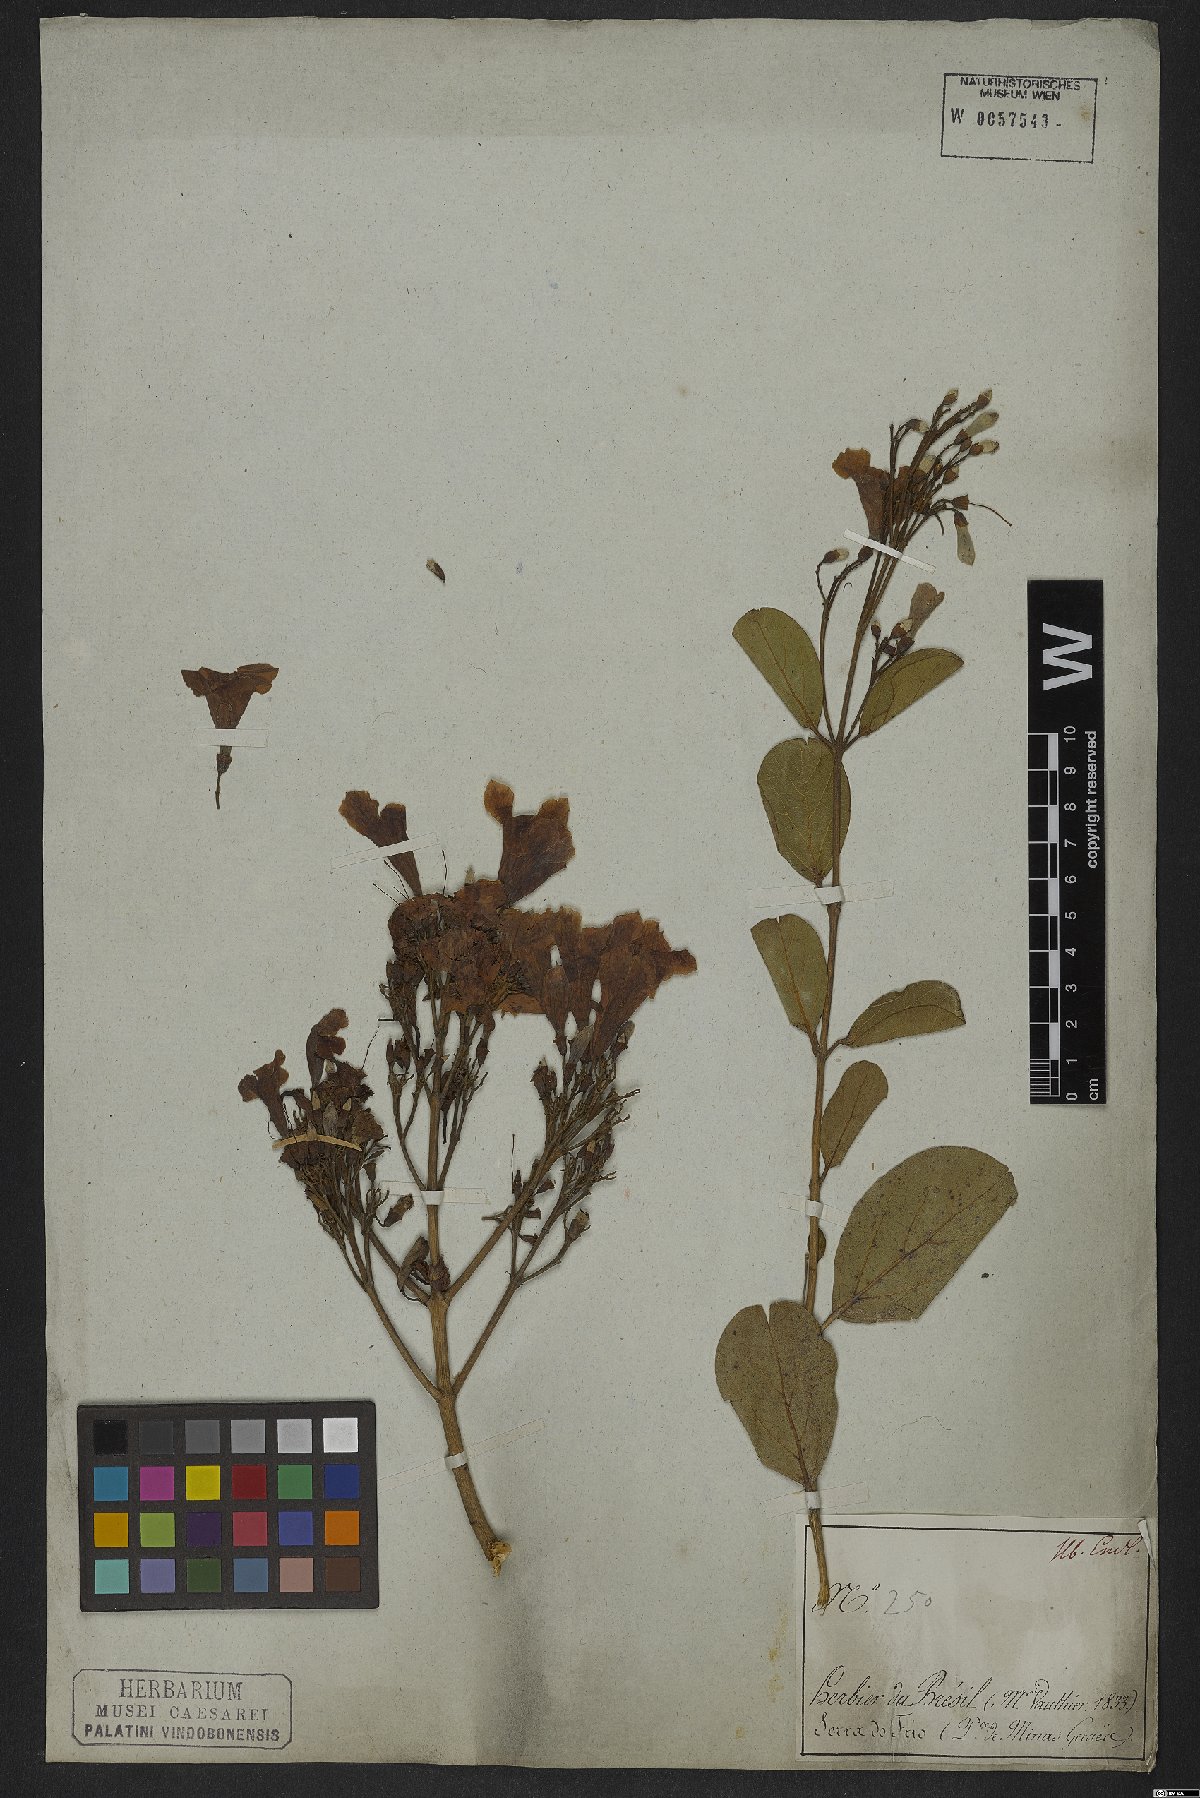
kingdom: Plantae
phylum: Tracheophyta
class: Magnoliopsida
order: Lamiales
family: Bignoniaceae
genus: Fridericia
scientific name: Fridericia platyphylla
